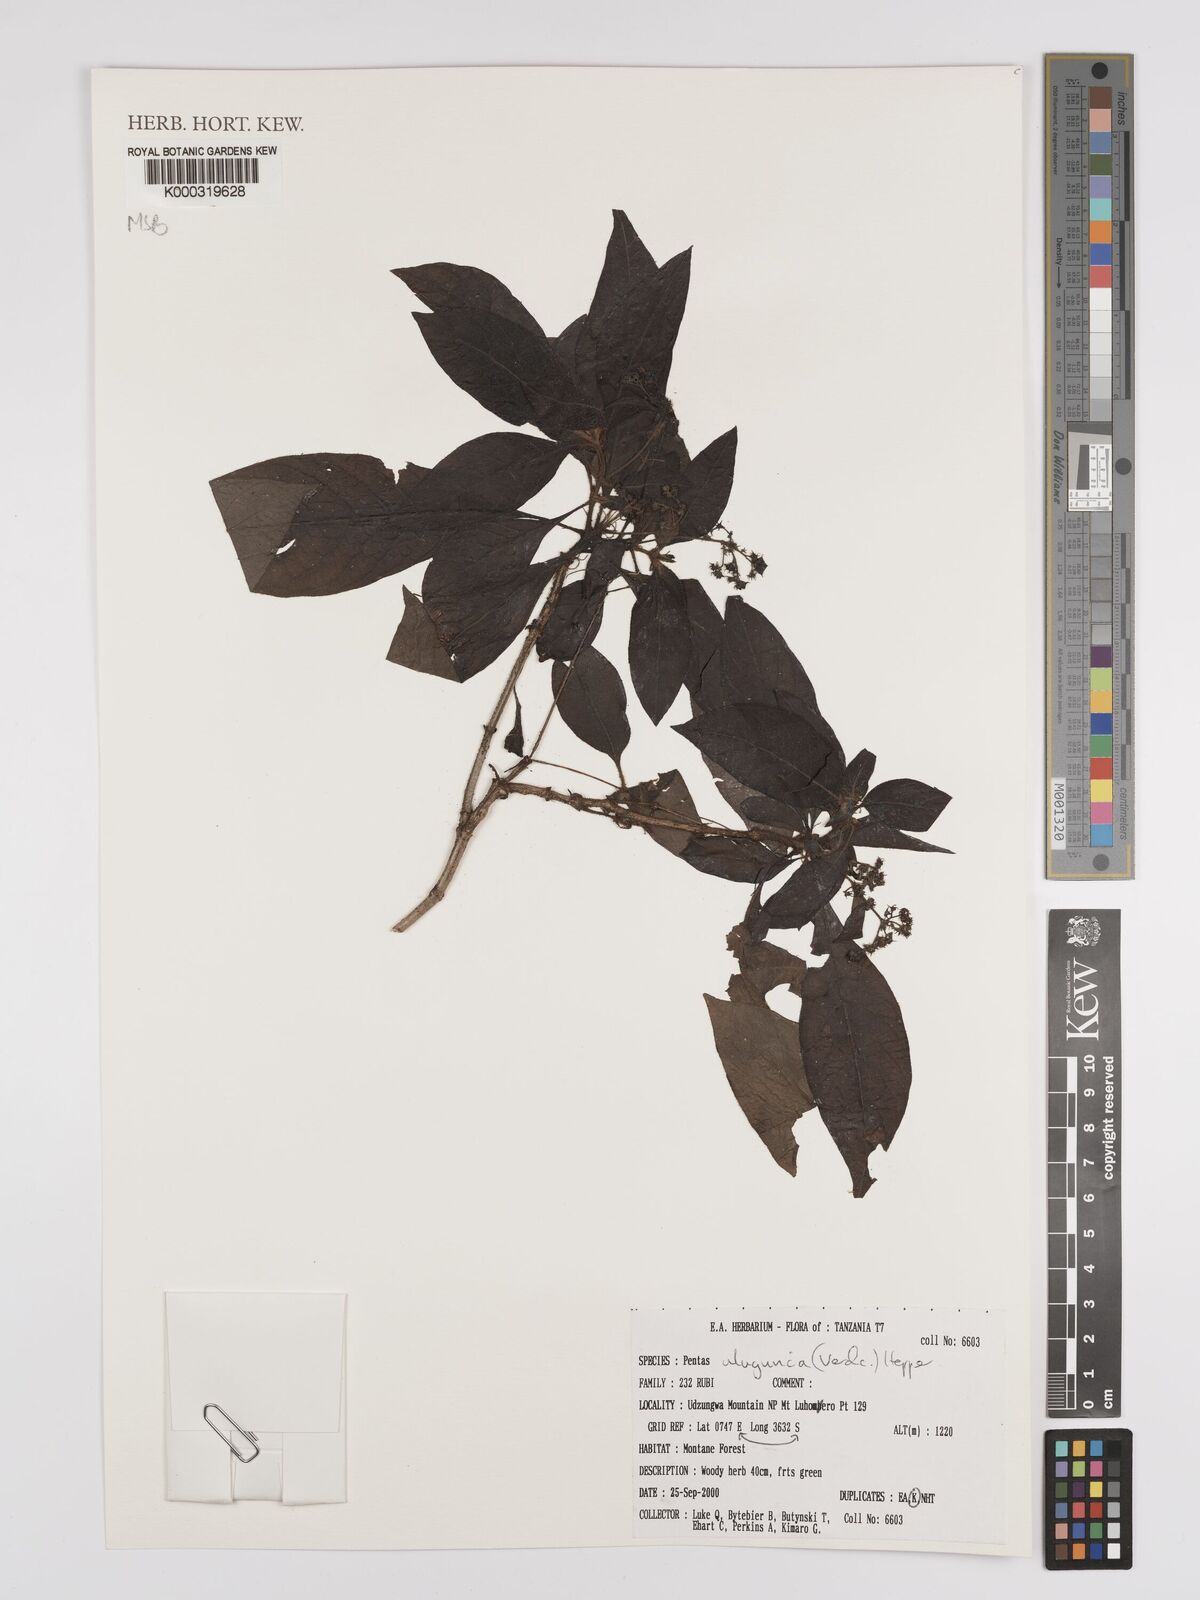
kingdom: Plantae
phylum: Tracheophyta
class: Magnoliopsida
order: Gentianales
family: Rubiaceae
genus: Phyllopentas
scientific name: Phyllopentas ulugurica
